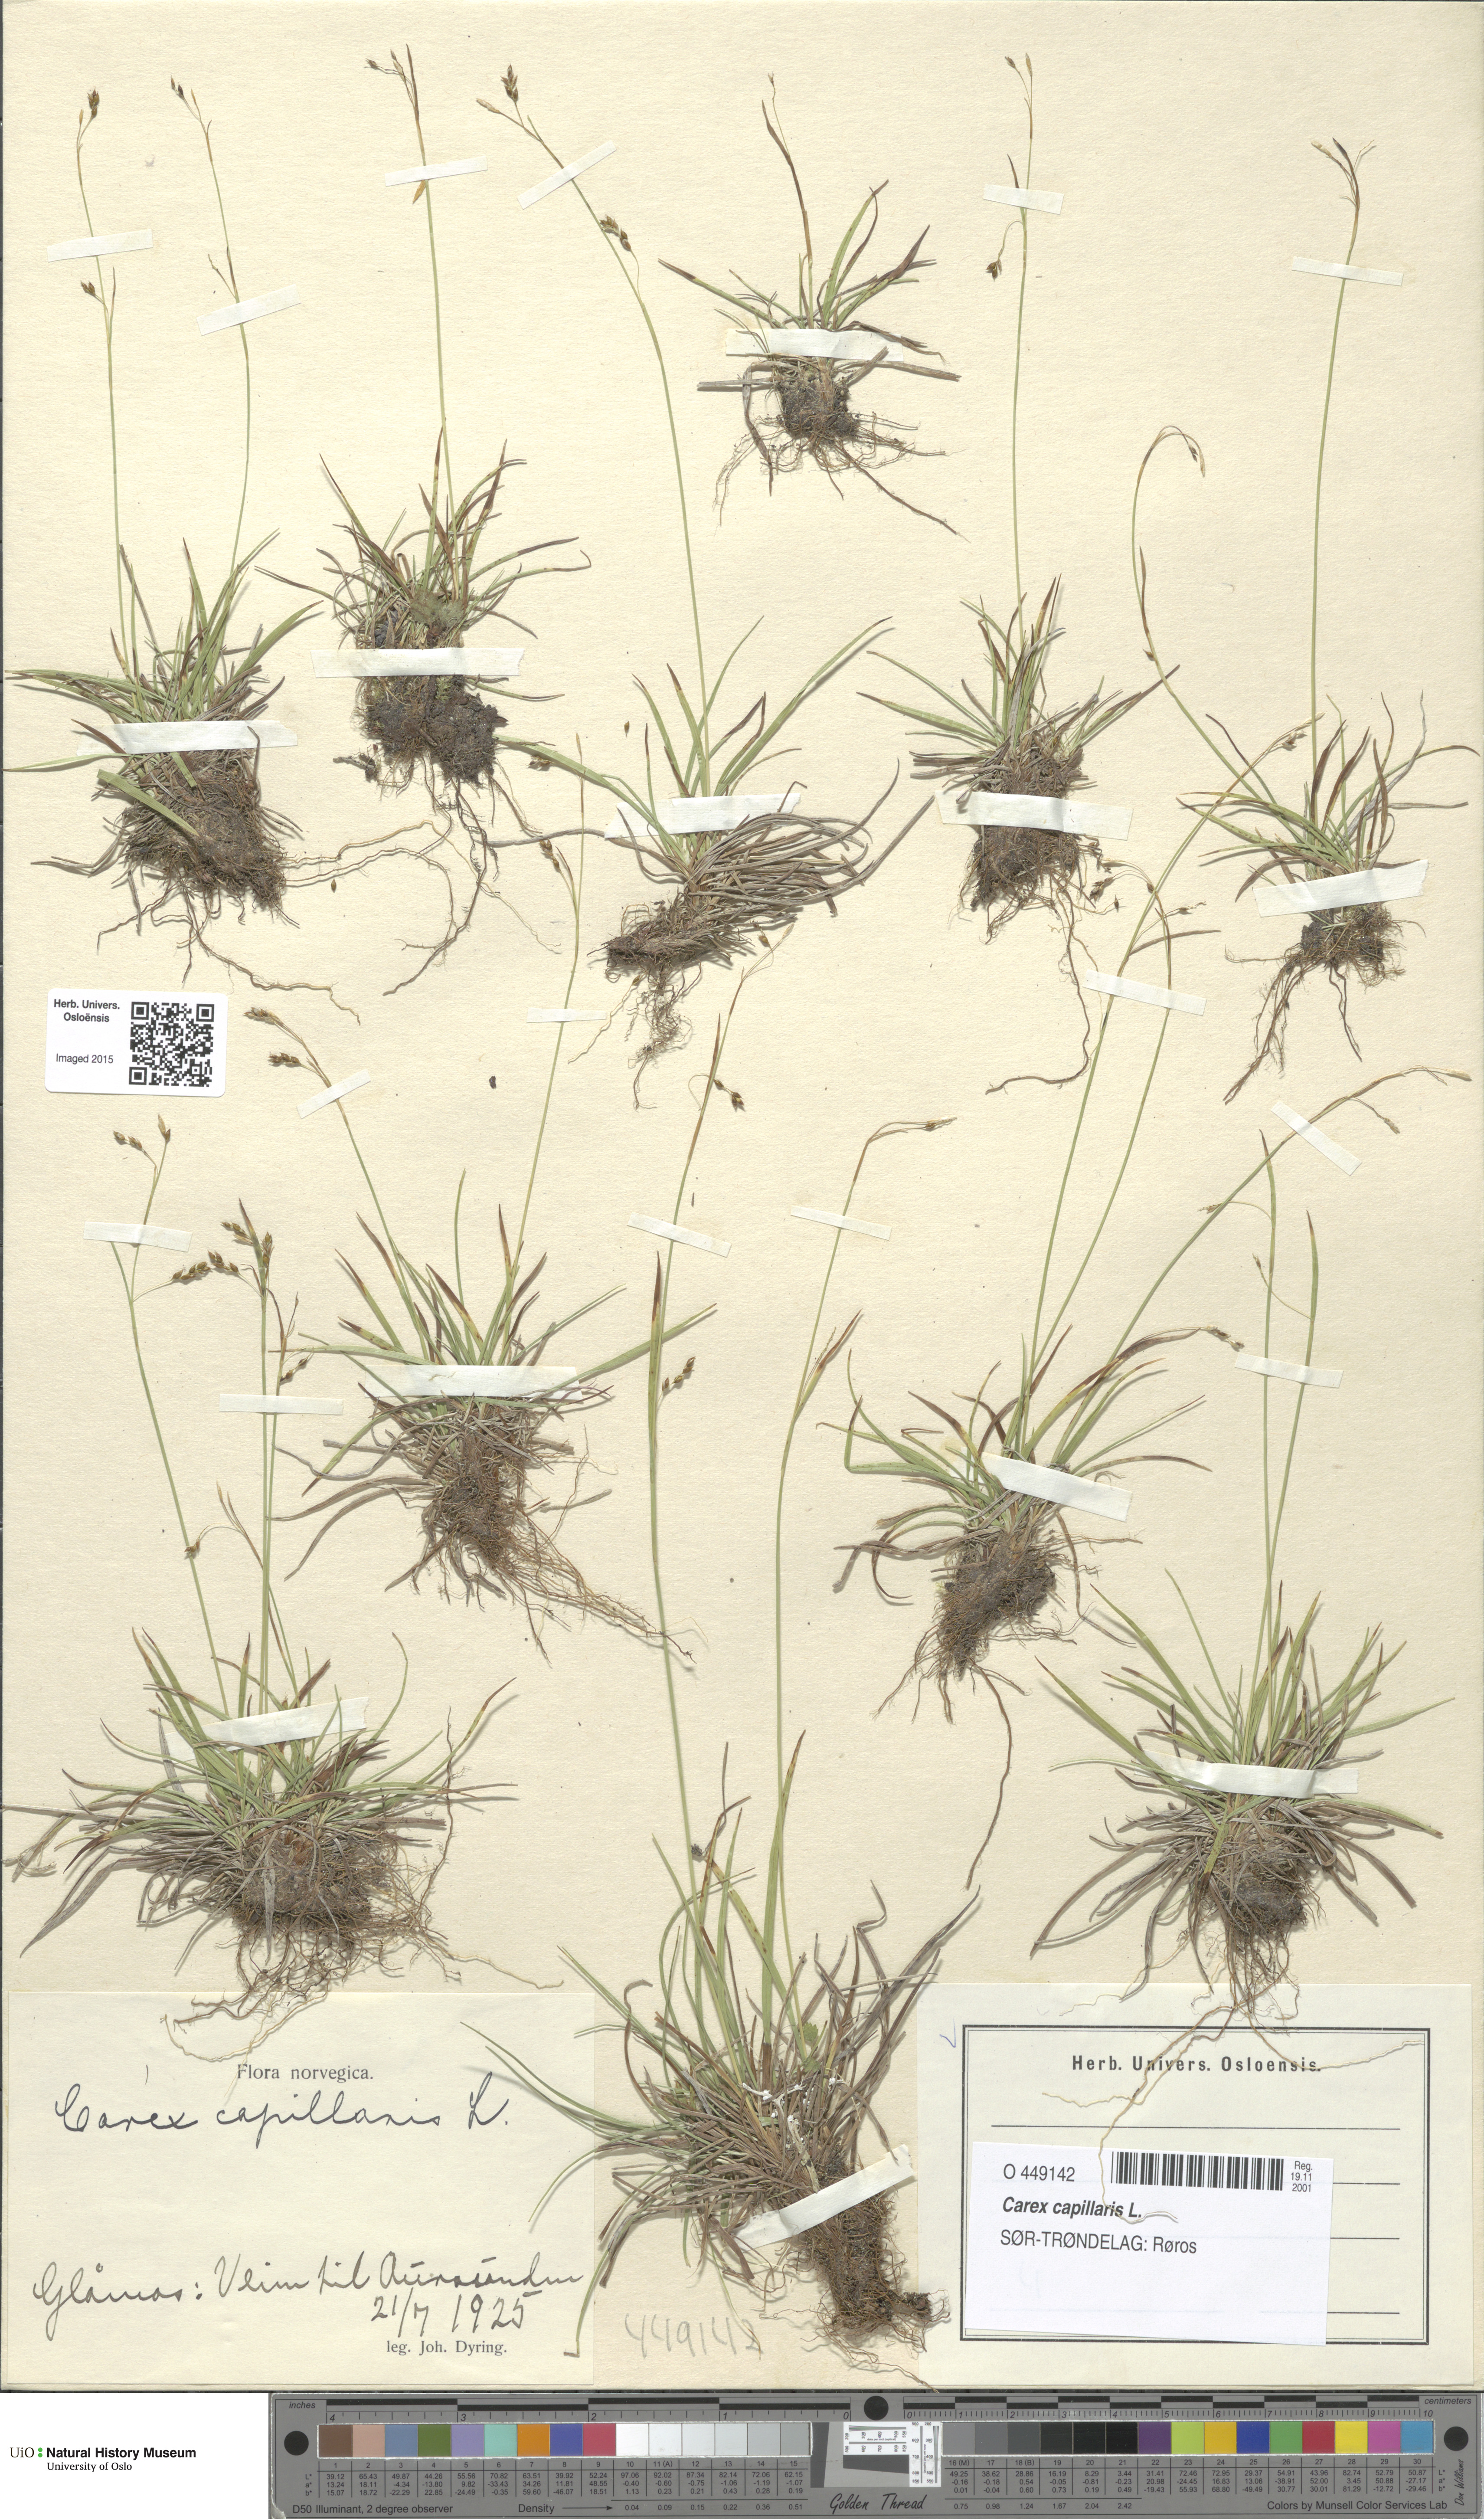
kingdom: Plantae
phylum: Tracheophyta
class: Liliopsida
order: Poales
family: Cyperaceae
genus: Carex
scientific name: Carex capillaris
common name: Hair sedge
